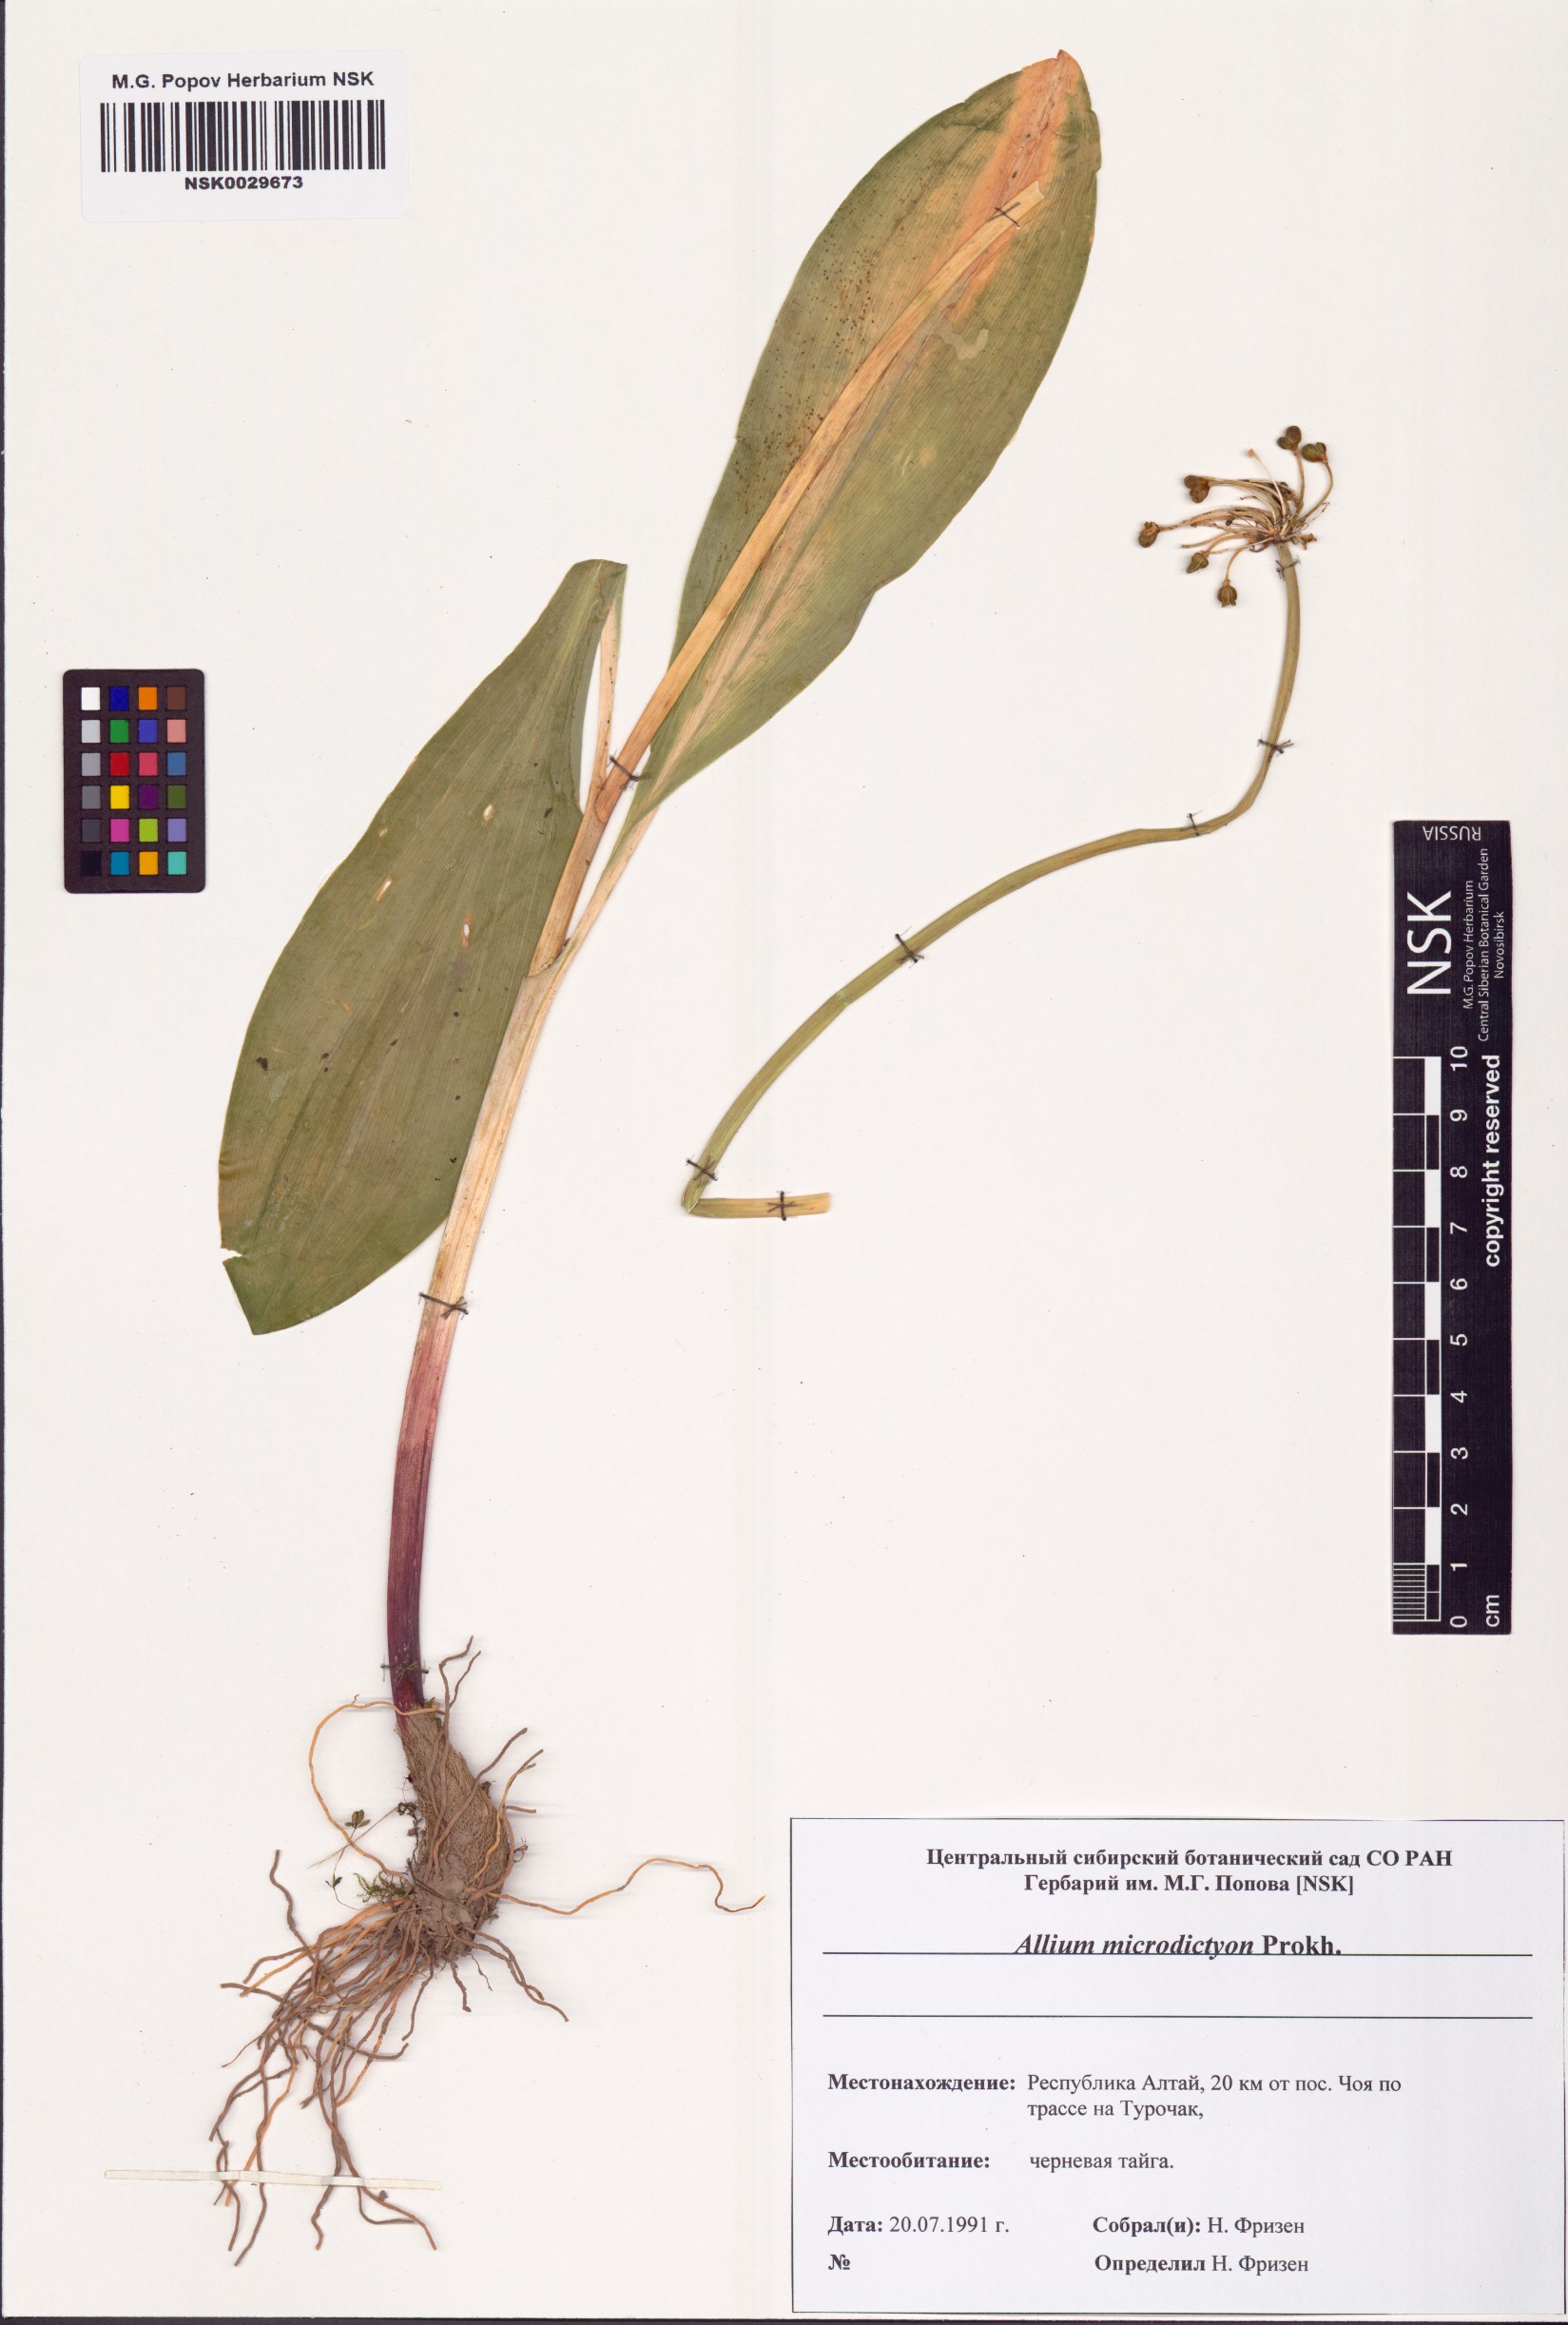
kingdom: Plantae
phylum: Tracheophyta
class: Liliopsida
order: Asparagales
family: Amaryllidaceae
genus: Allium
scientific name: Allium microdictyon
